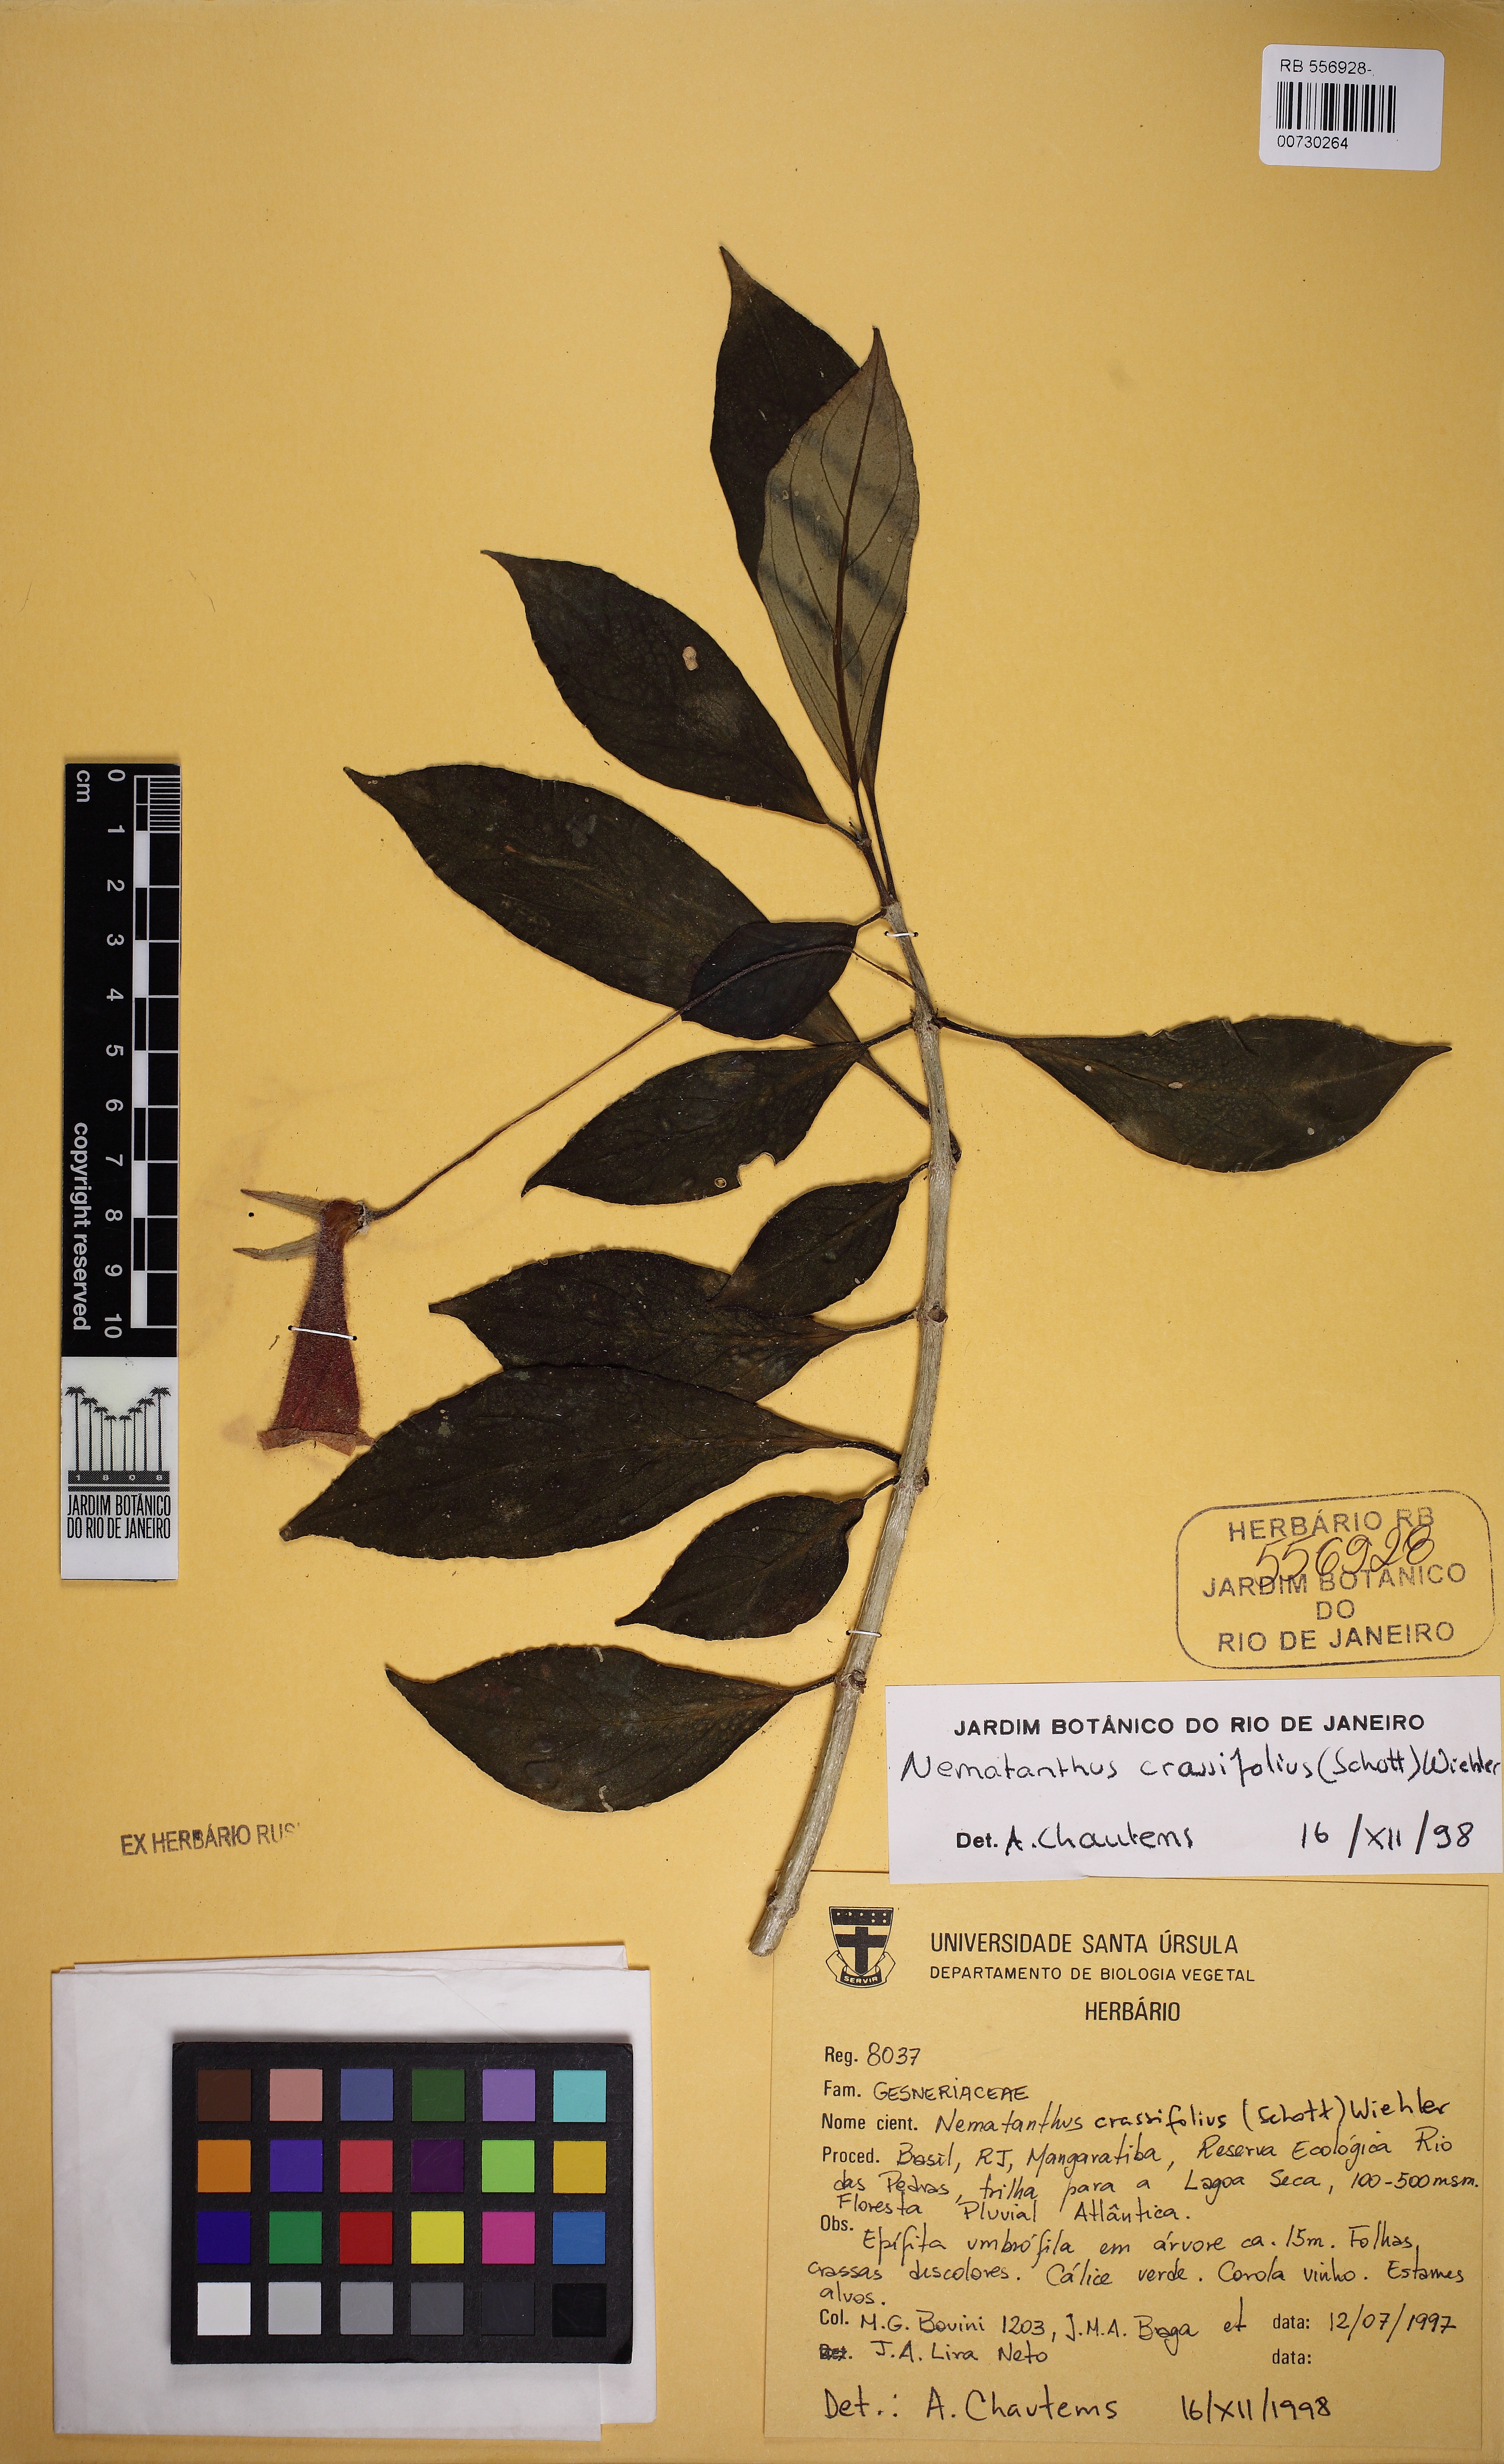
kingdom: Plantae
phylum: Tracheophyta
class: Magnoliopsida
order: Lamiales
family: Gesneriaceae
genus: Nematanthus
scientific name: Nematanthus crassifolius
